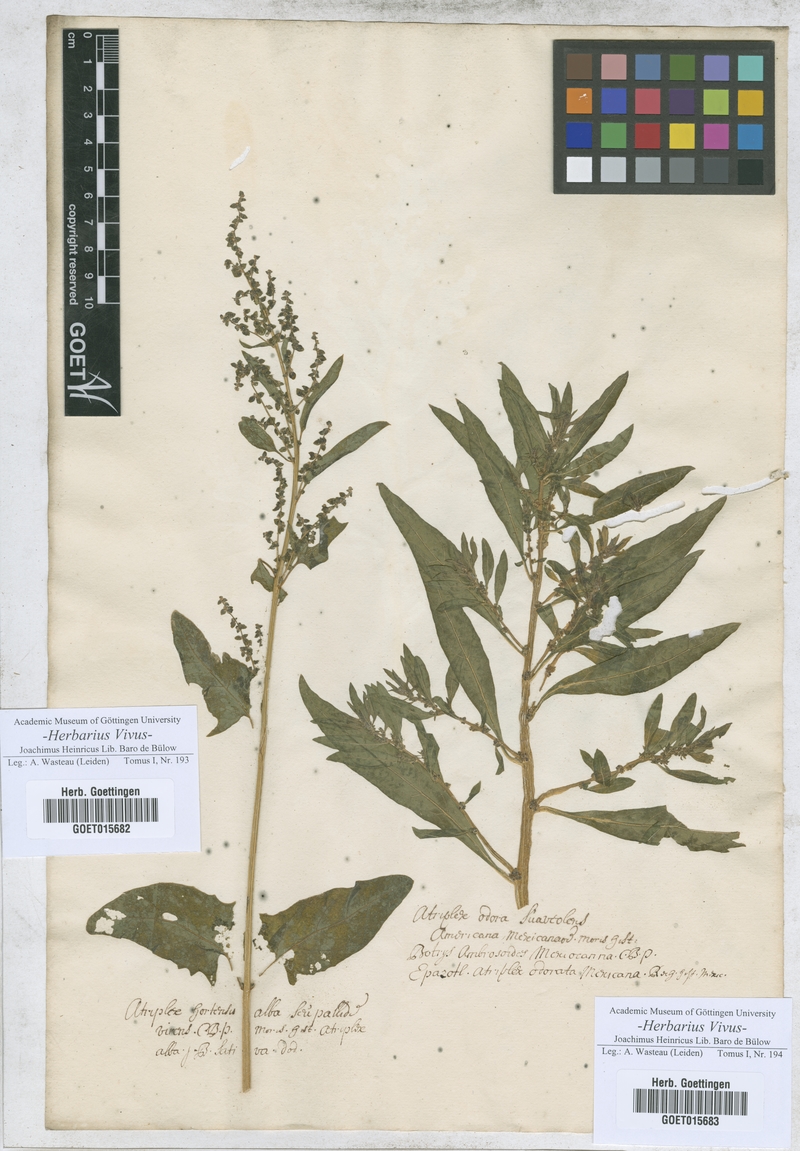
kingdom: Plantae
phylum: Tracheophyta
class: Magnoliopsida
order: Caryophyllales
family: Amaranthaceae
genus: Atriplex
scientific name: Atriplex hortensis
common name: Garden orache
